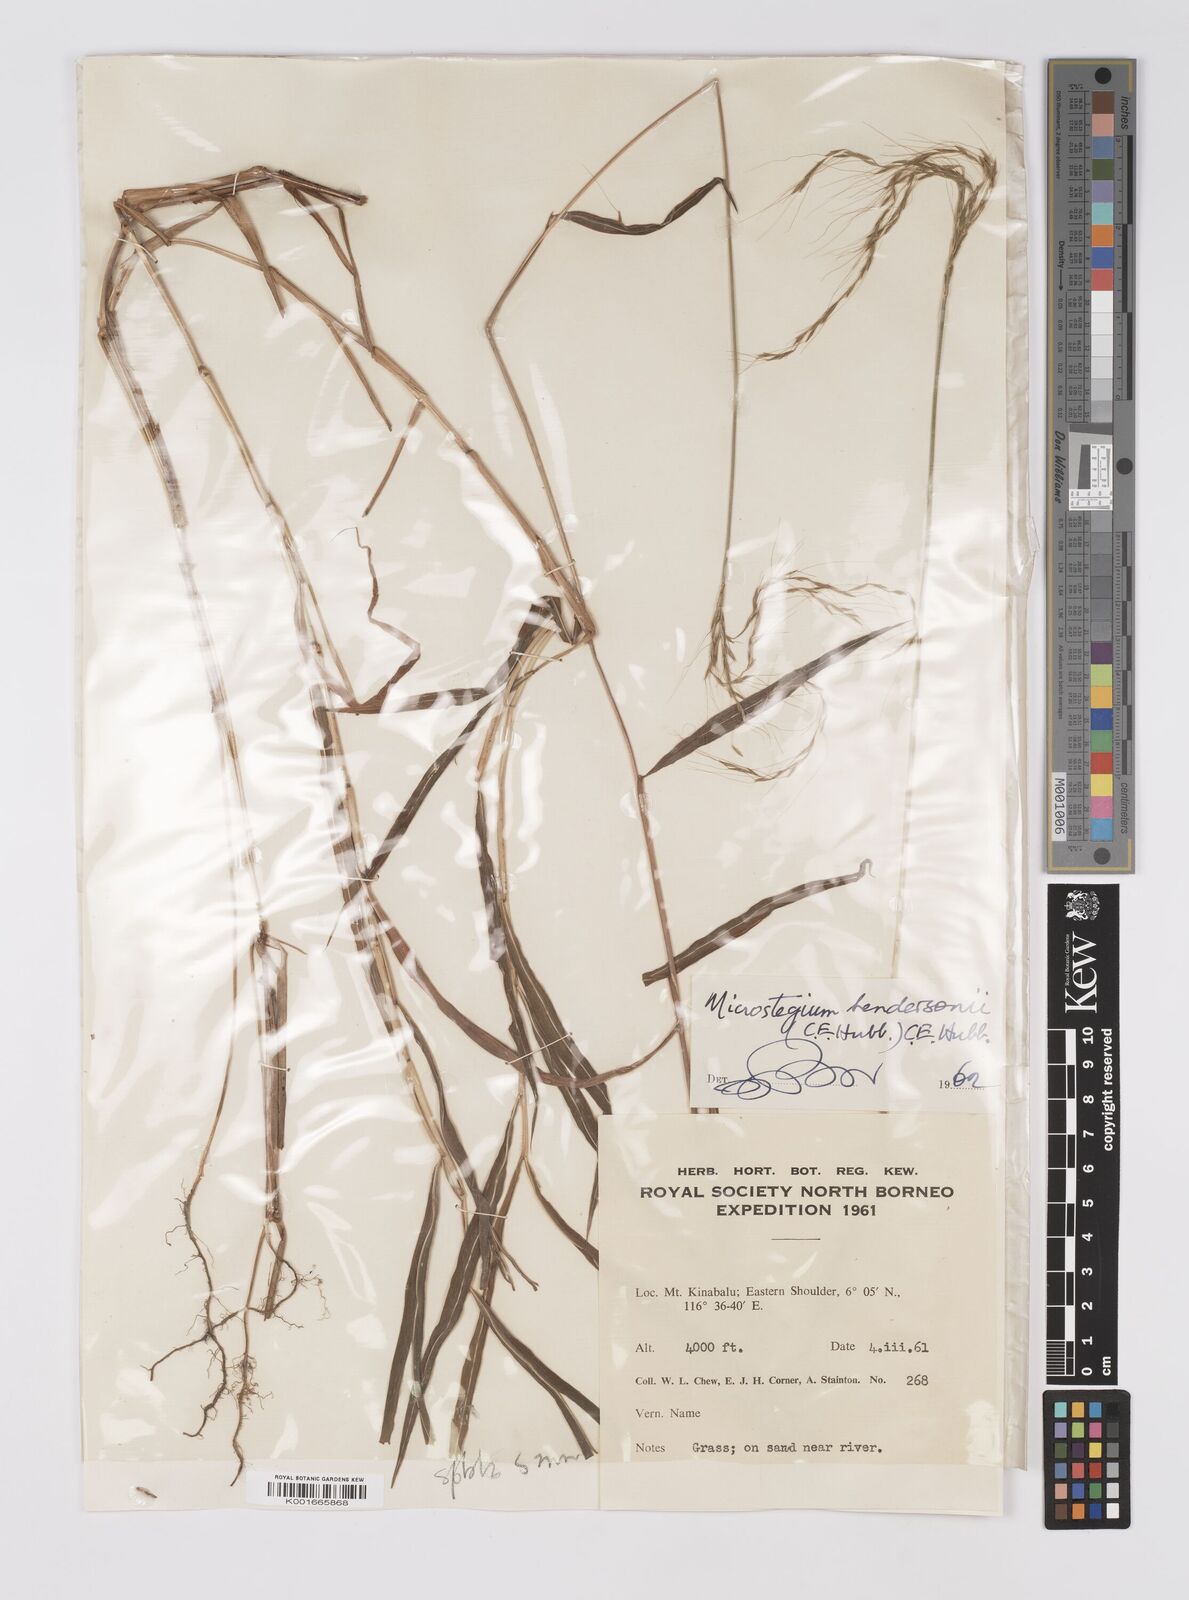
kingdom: Plantae
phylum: Tracheophyta
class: Liliopsida
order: Poales
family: Poaceae
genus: Microstegium
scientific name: Microstegium geniculatum
